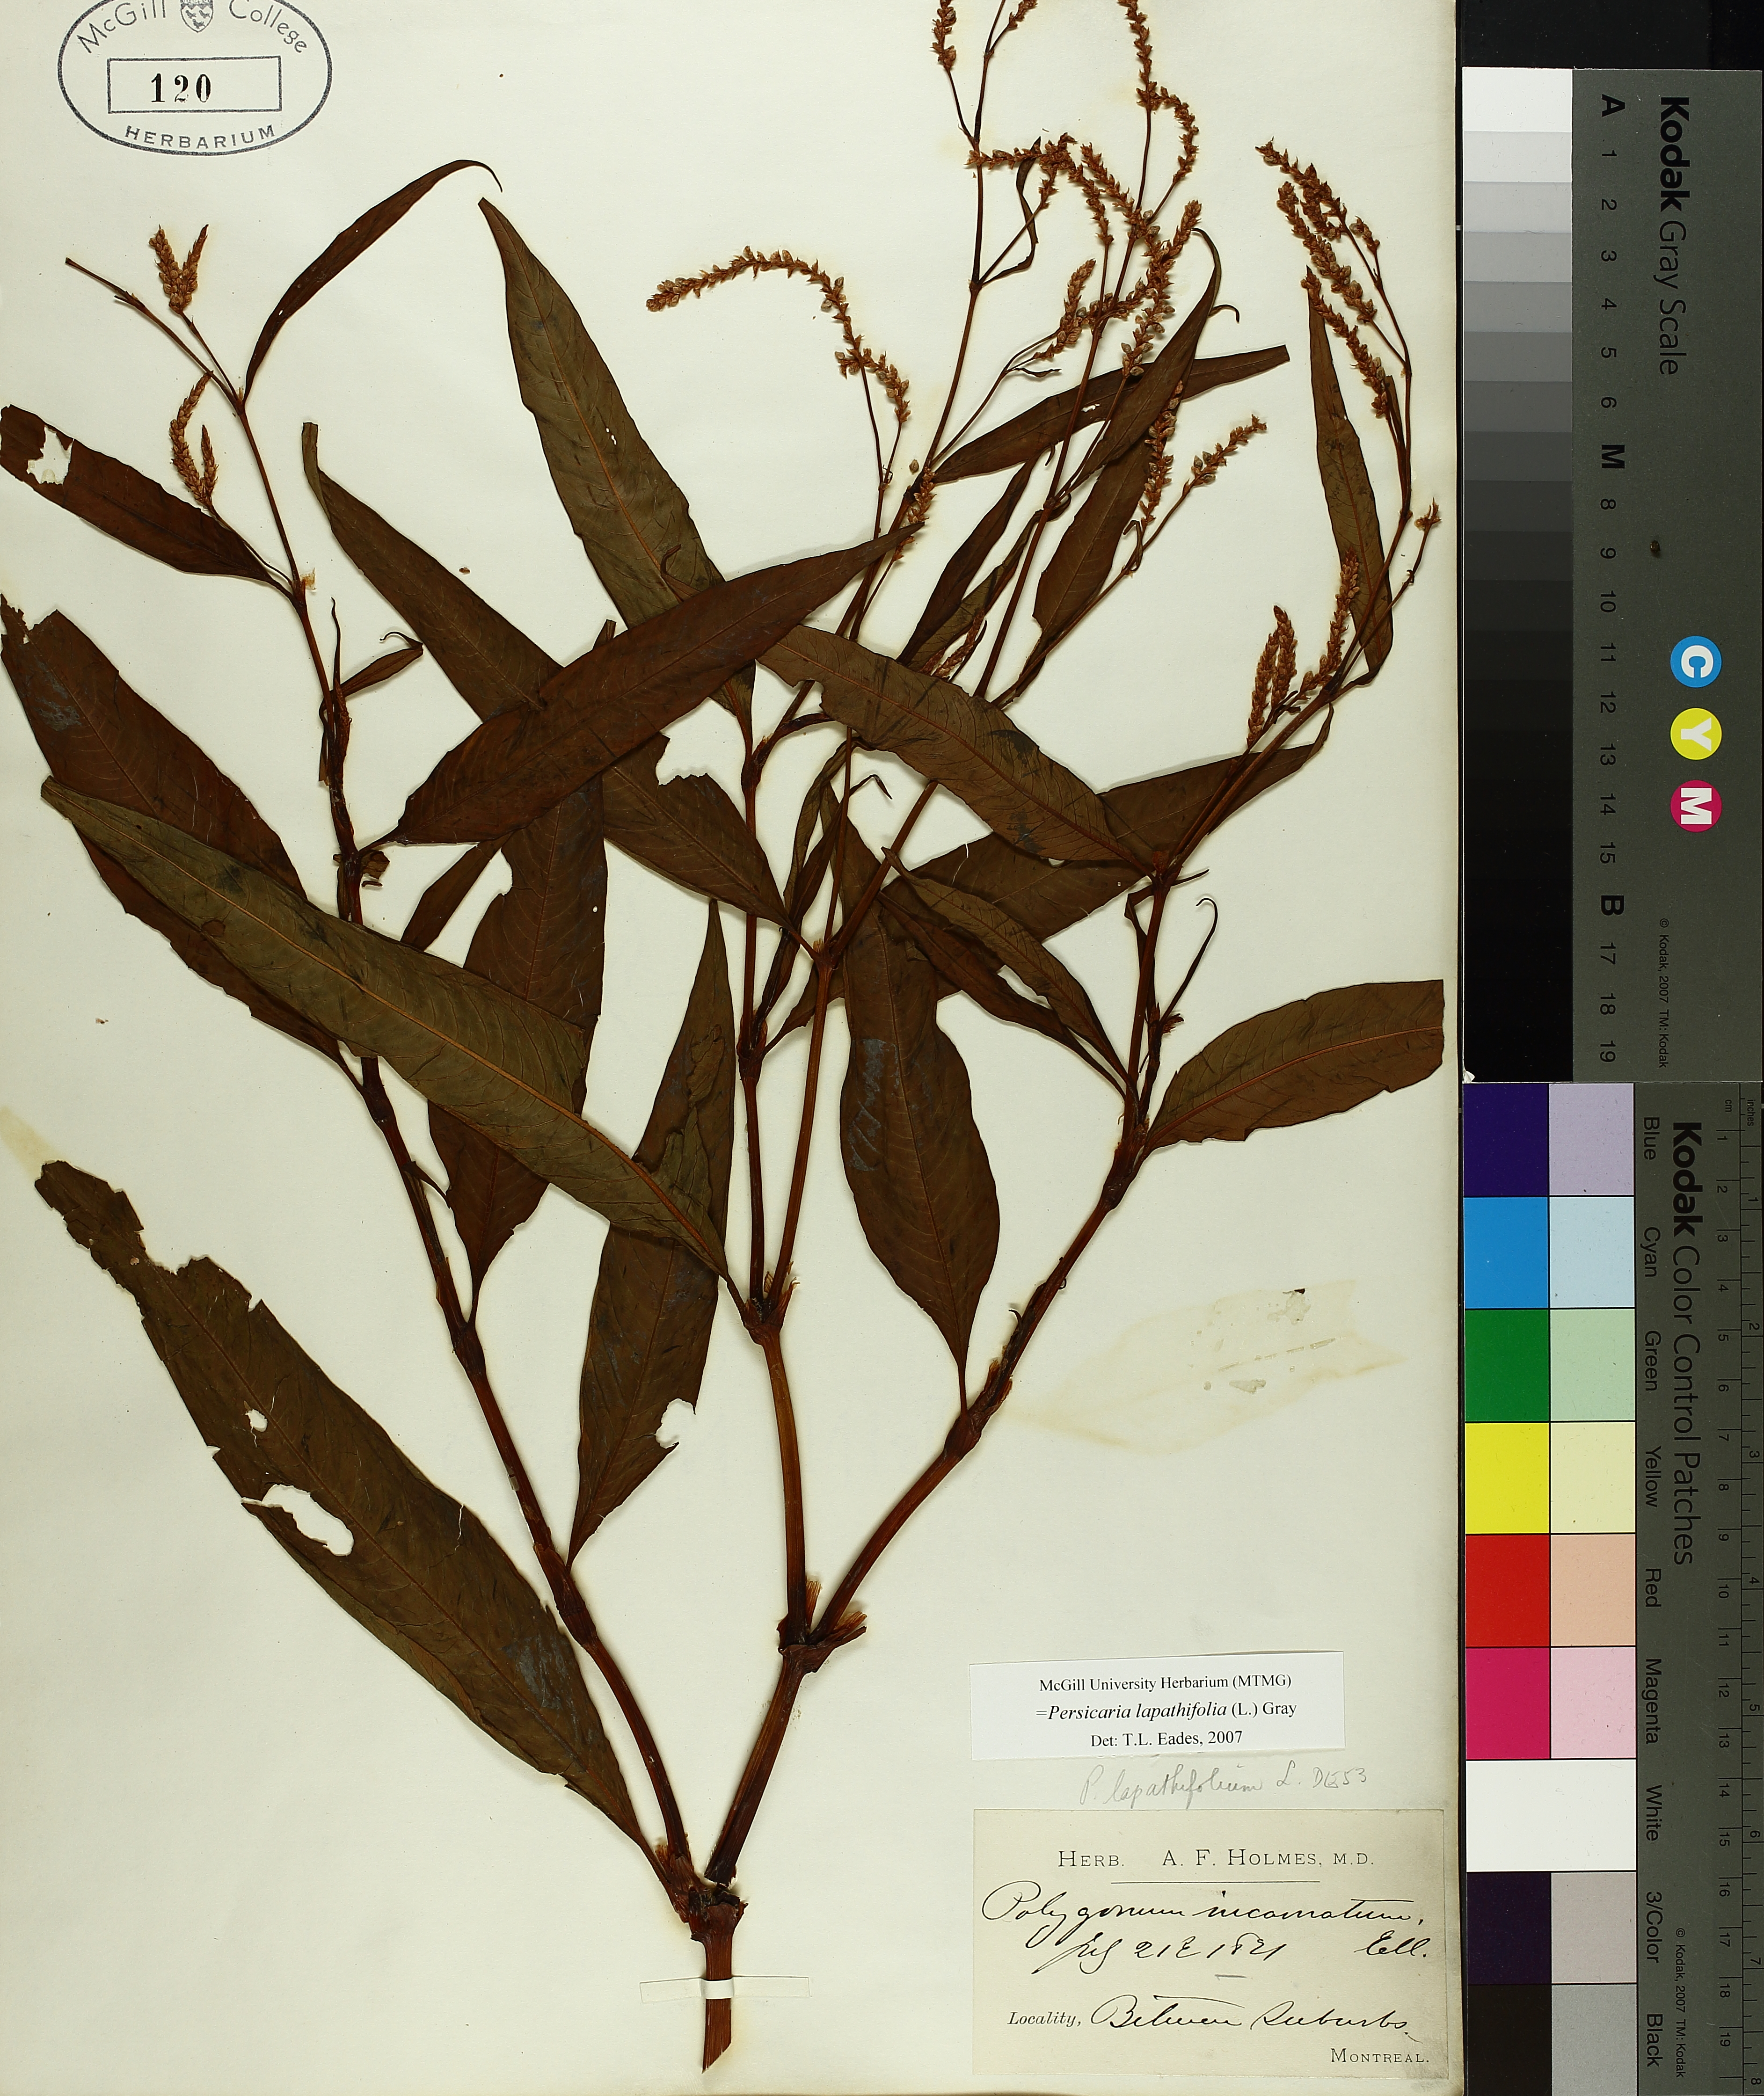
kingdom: Plantae
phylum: Tracheophyta
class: Magnoliopsida
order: Caryophyllales
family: Polygonaceae
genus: Persicaria
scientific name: Persicaria lapathifolia
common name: Curlytop knotweed
